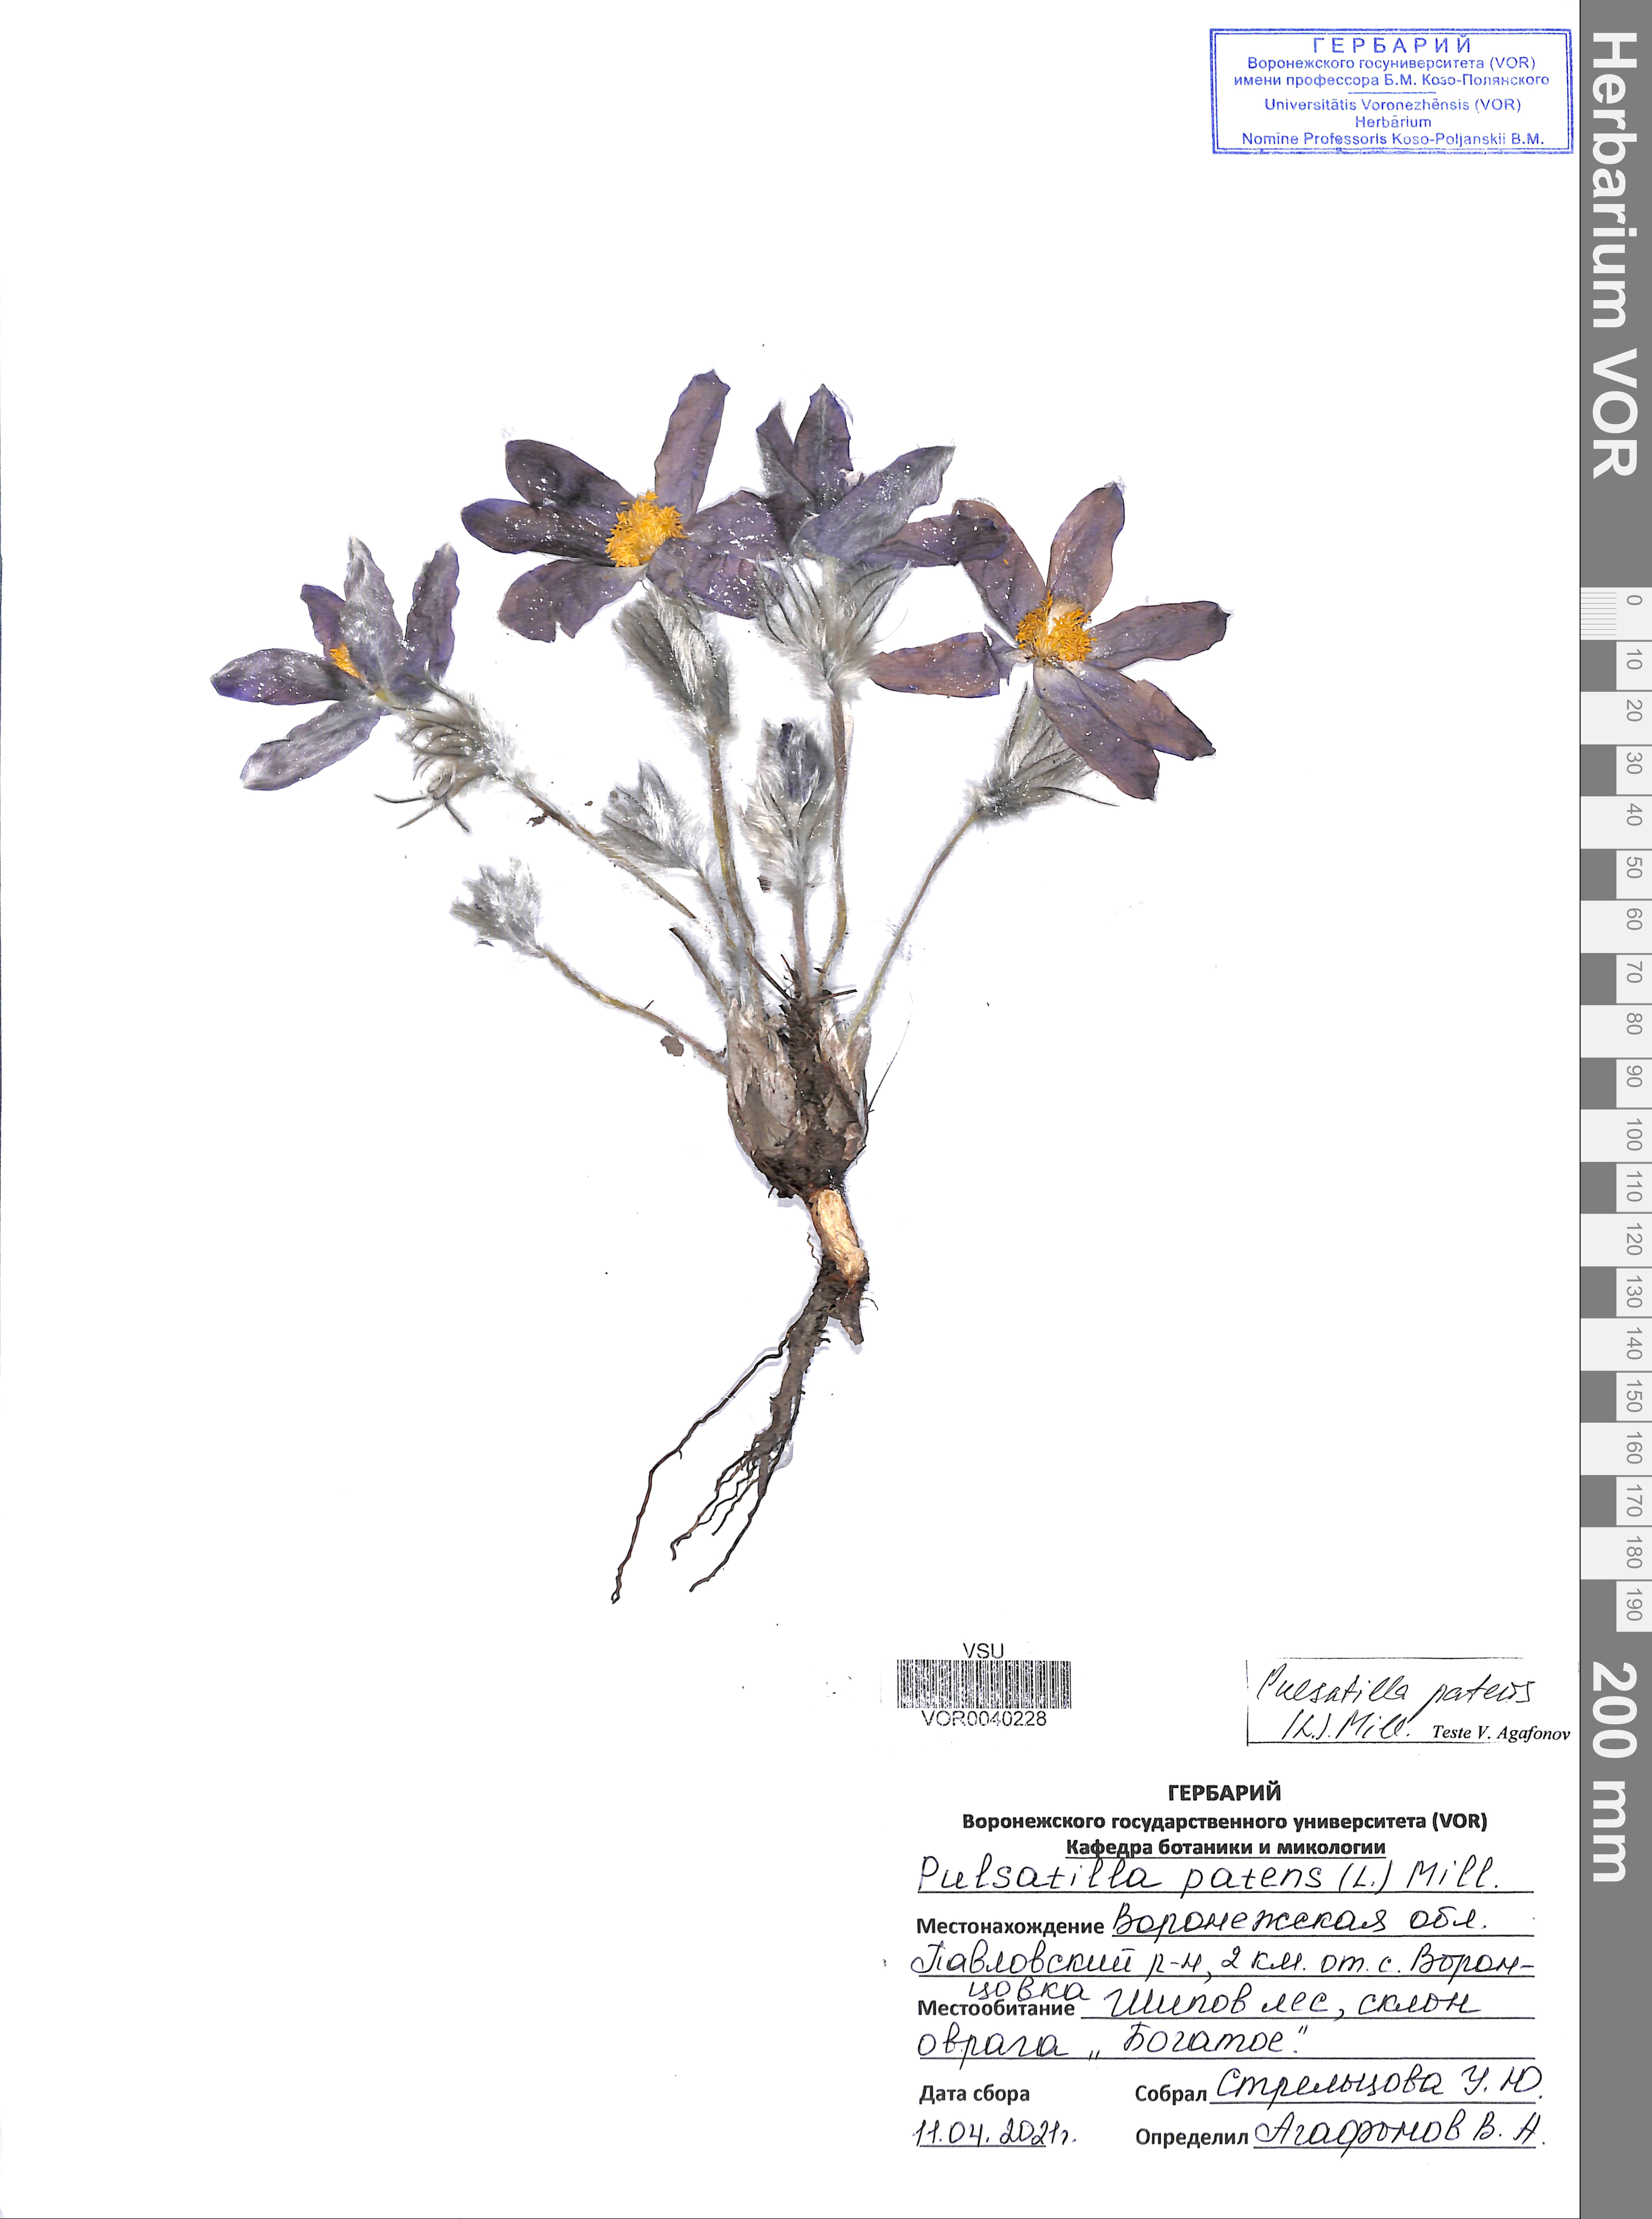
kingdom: Plantae
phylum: Tracheophyta
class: Magnoliopsida
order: Ranunculales
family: Ranunculaceae
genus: Pulsatilla
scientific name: Pulsatilla patens
